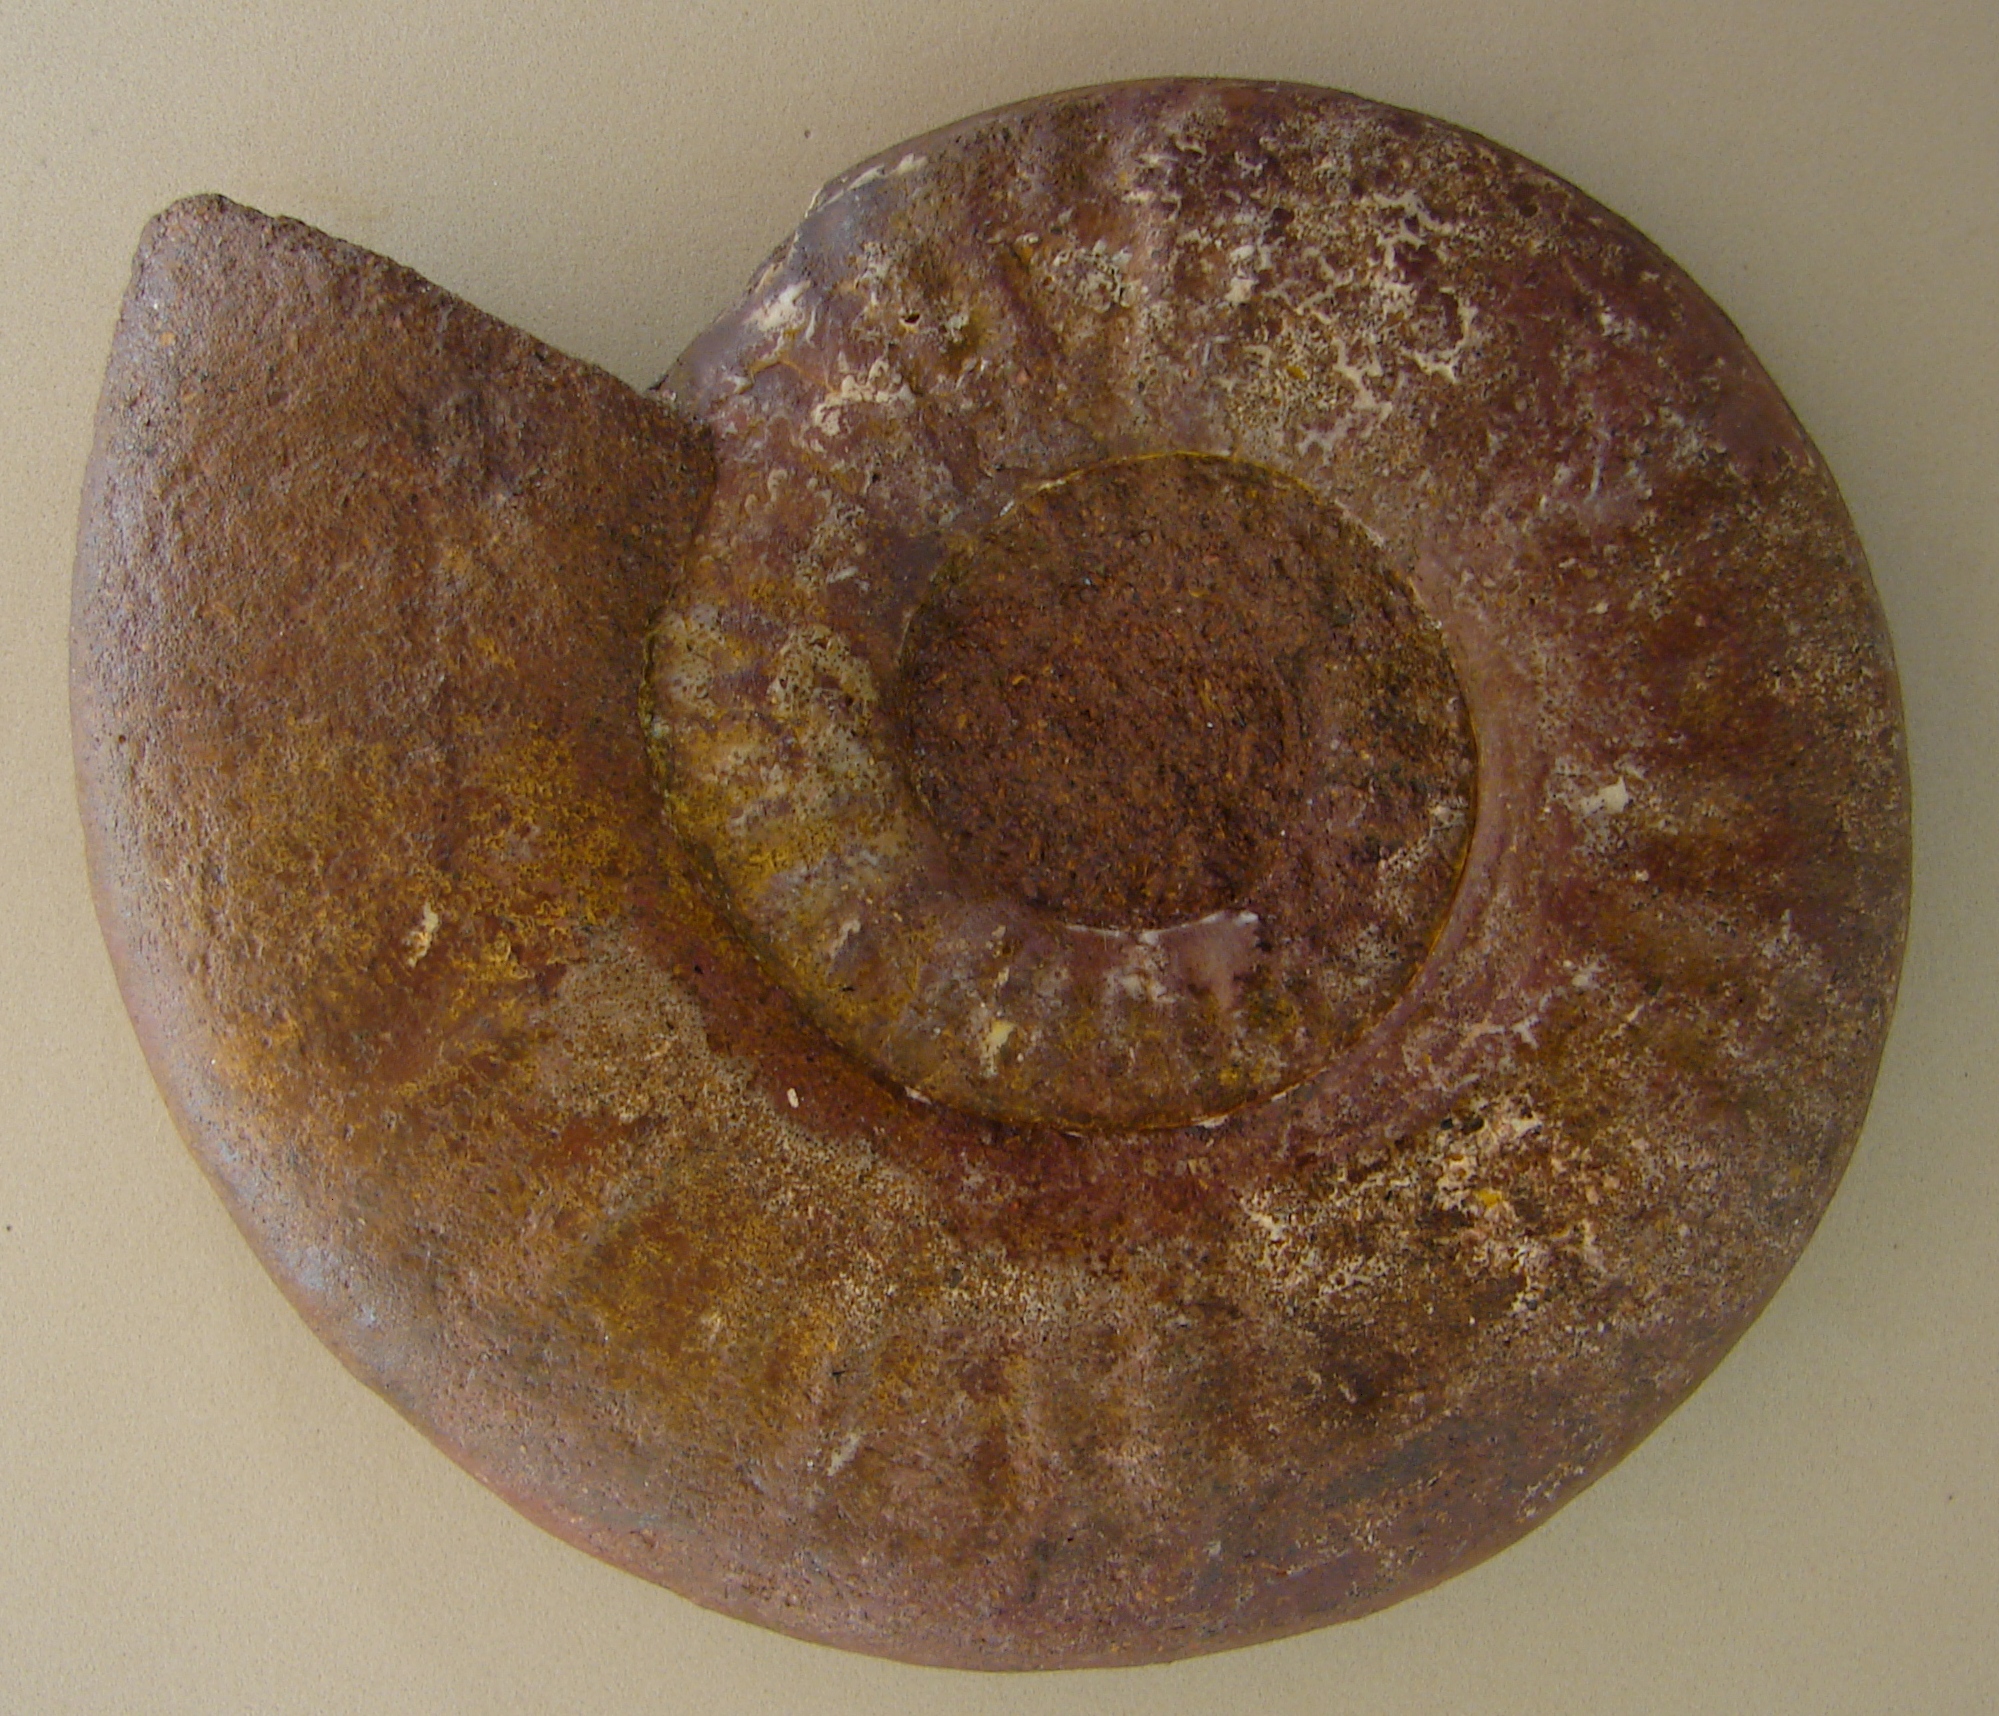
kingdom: Animalia
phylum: Mollusca
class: Cephalopoda
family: Hildoceratidae
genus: Dumortieria
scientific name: Dumortieria kochi
